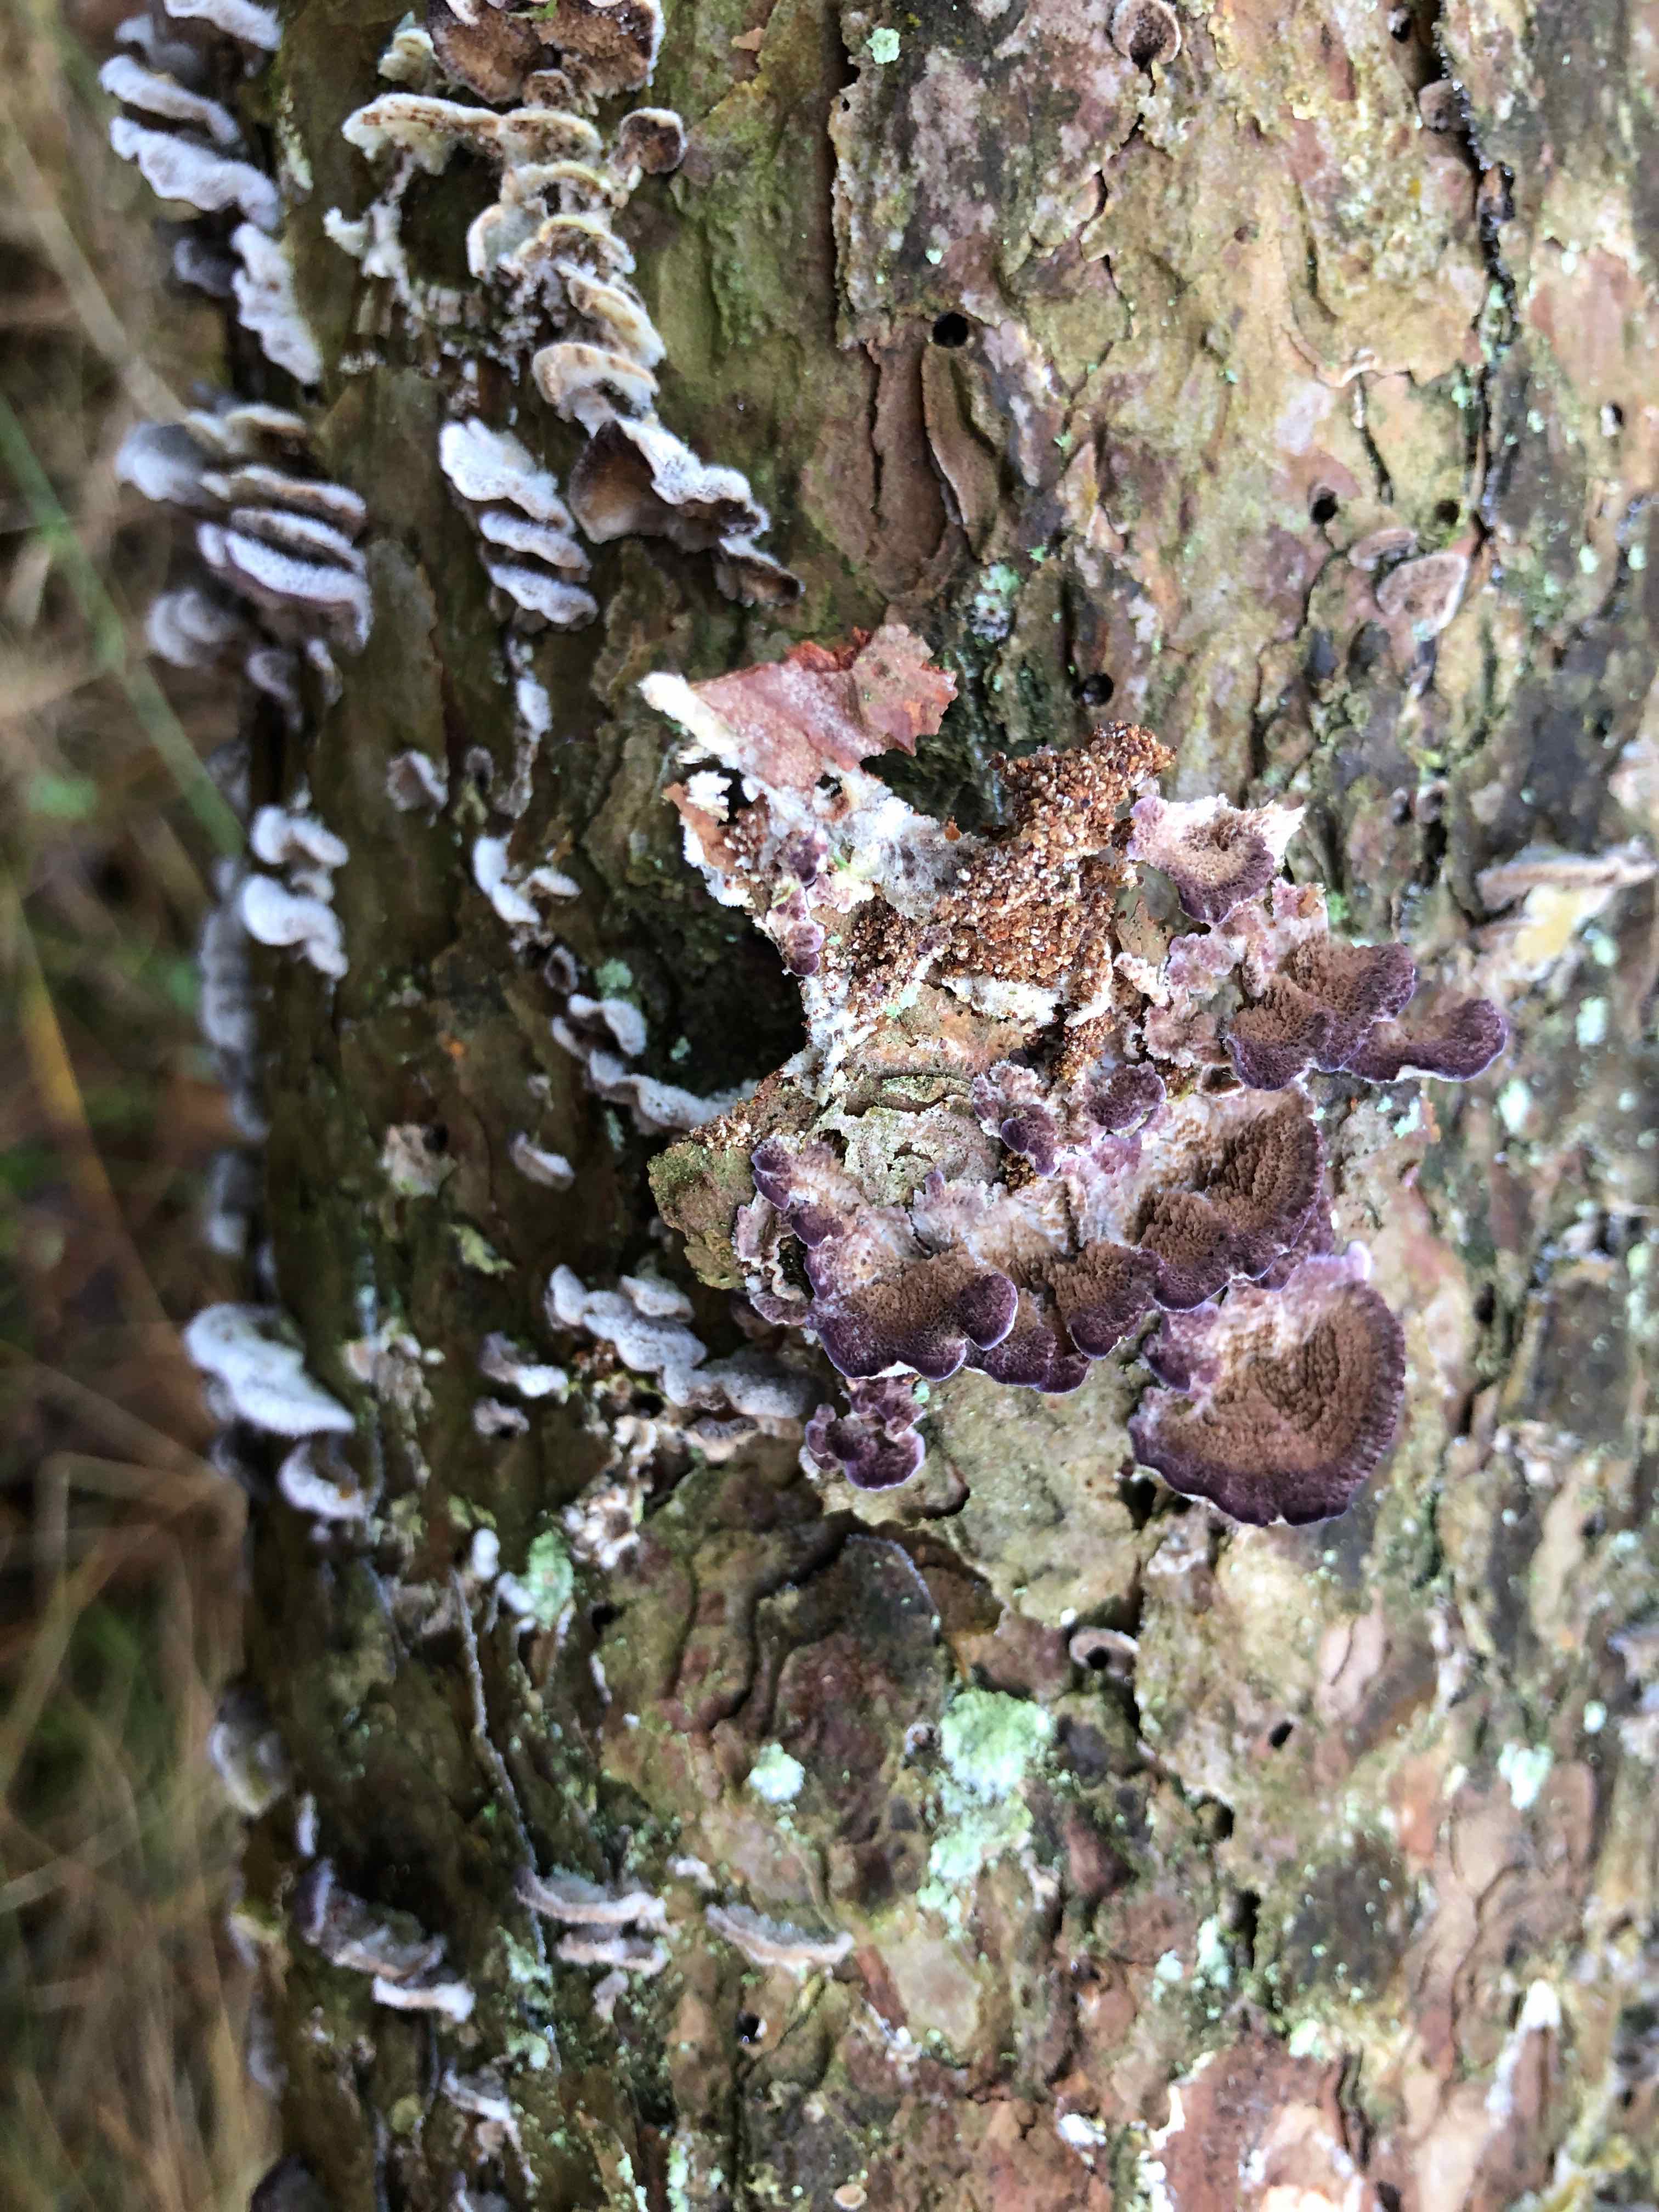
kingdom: Fungi
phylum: Basidiomycota
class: Agaricomycetes
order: Hymenochaetales
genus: Trichaptum
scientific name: Trichaptum abietinum
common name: almindelig violporesvamp
